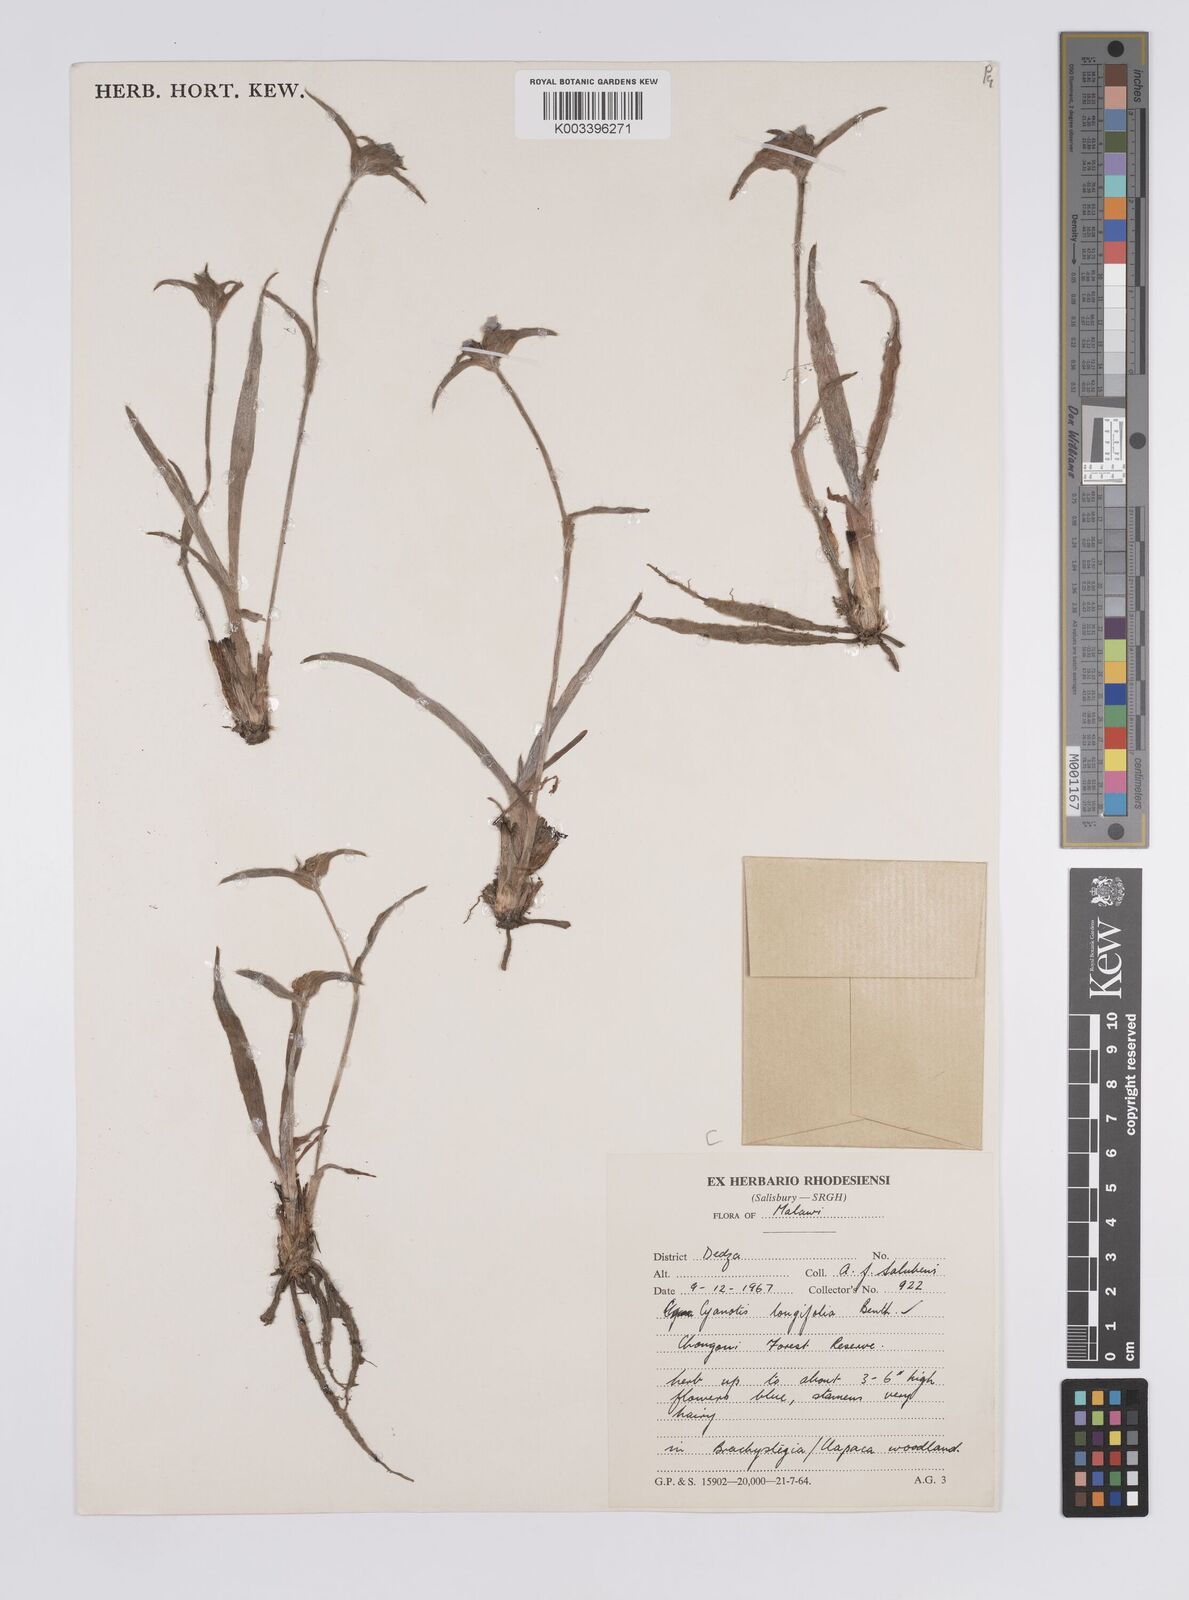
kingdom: Plantae
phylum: Tracheophyta
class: Liliopsida
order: Commelinales
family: Commelinaceae
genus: Cyanotis
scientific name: Cyanotis longifolia
